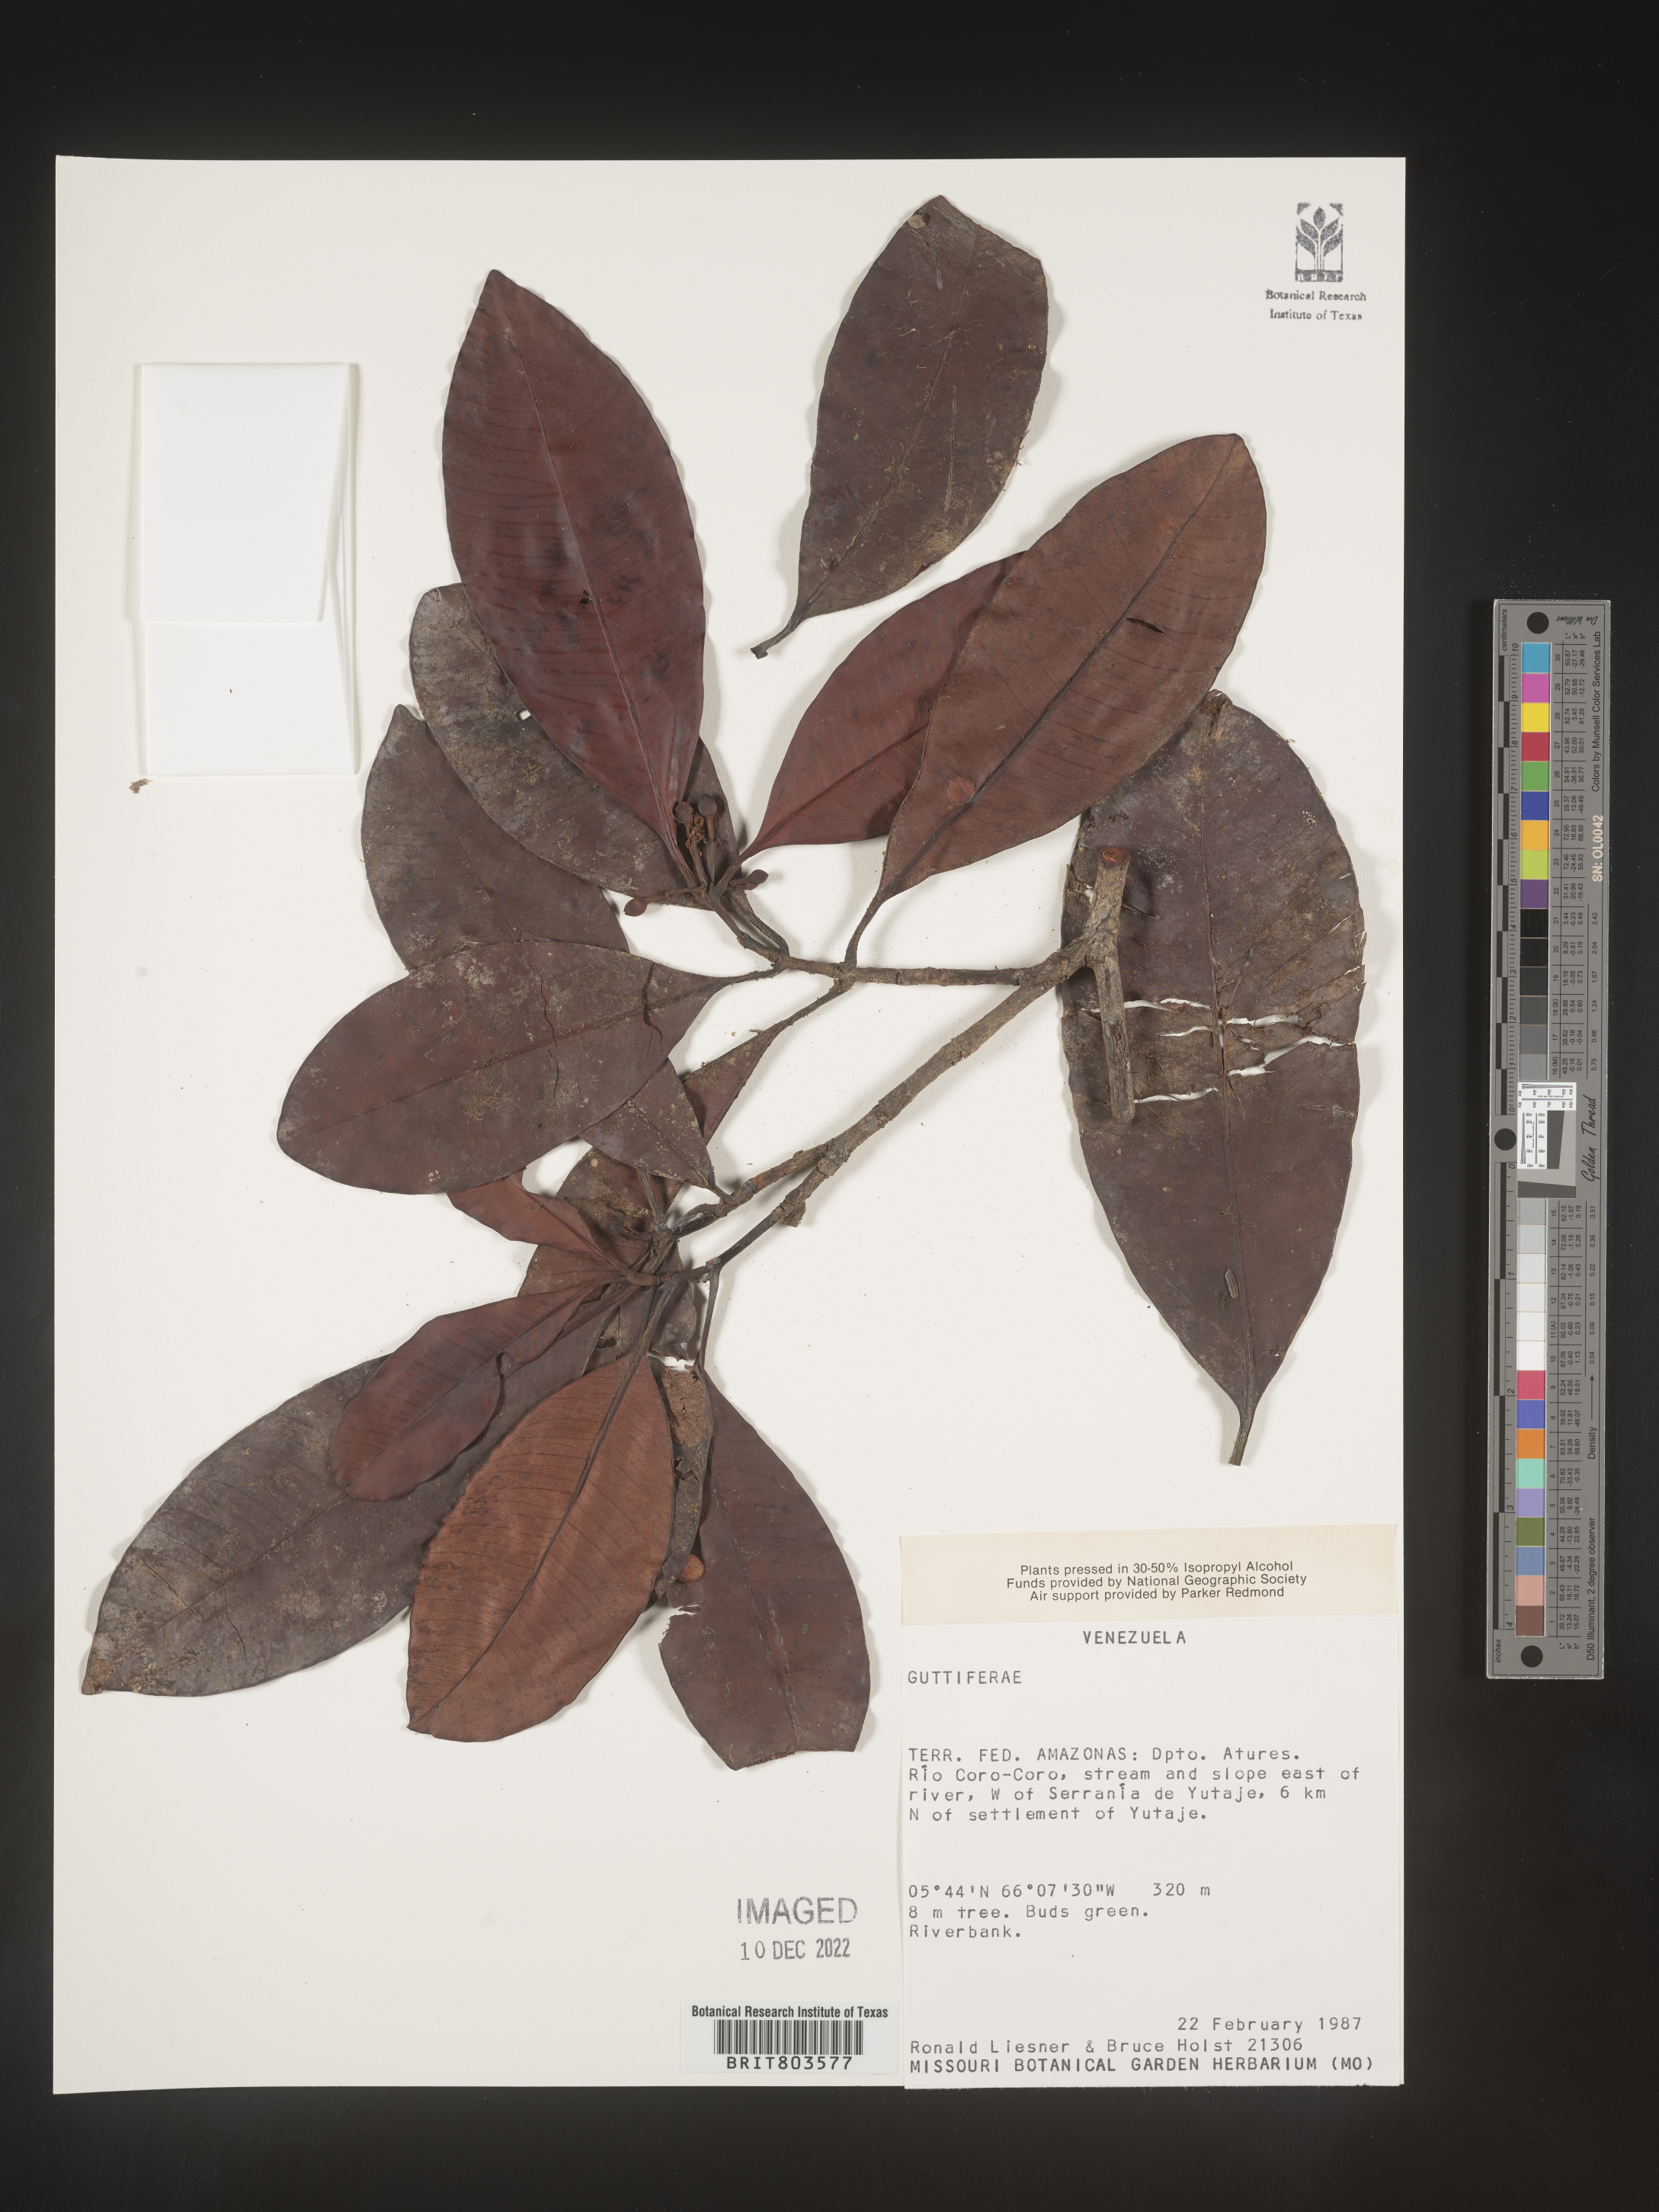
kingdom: Plantae
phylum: Tracheophyta
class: Magnoliopsida
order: Malpighiales
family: Clusiaceae
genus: Tovomita
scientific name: Tovomita
